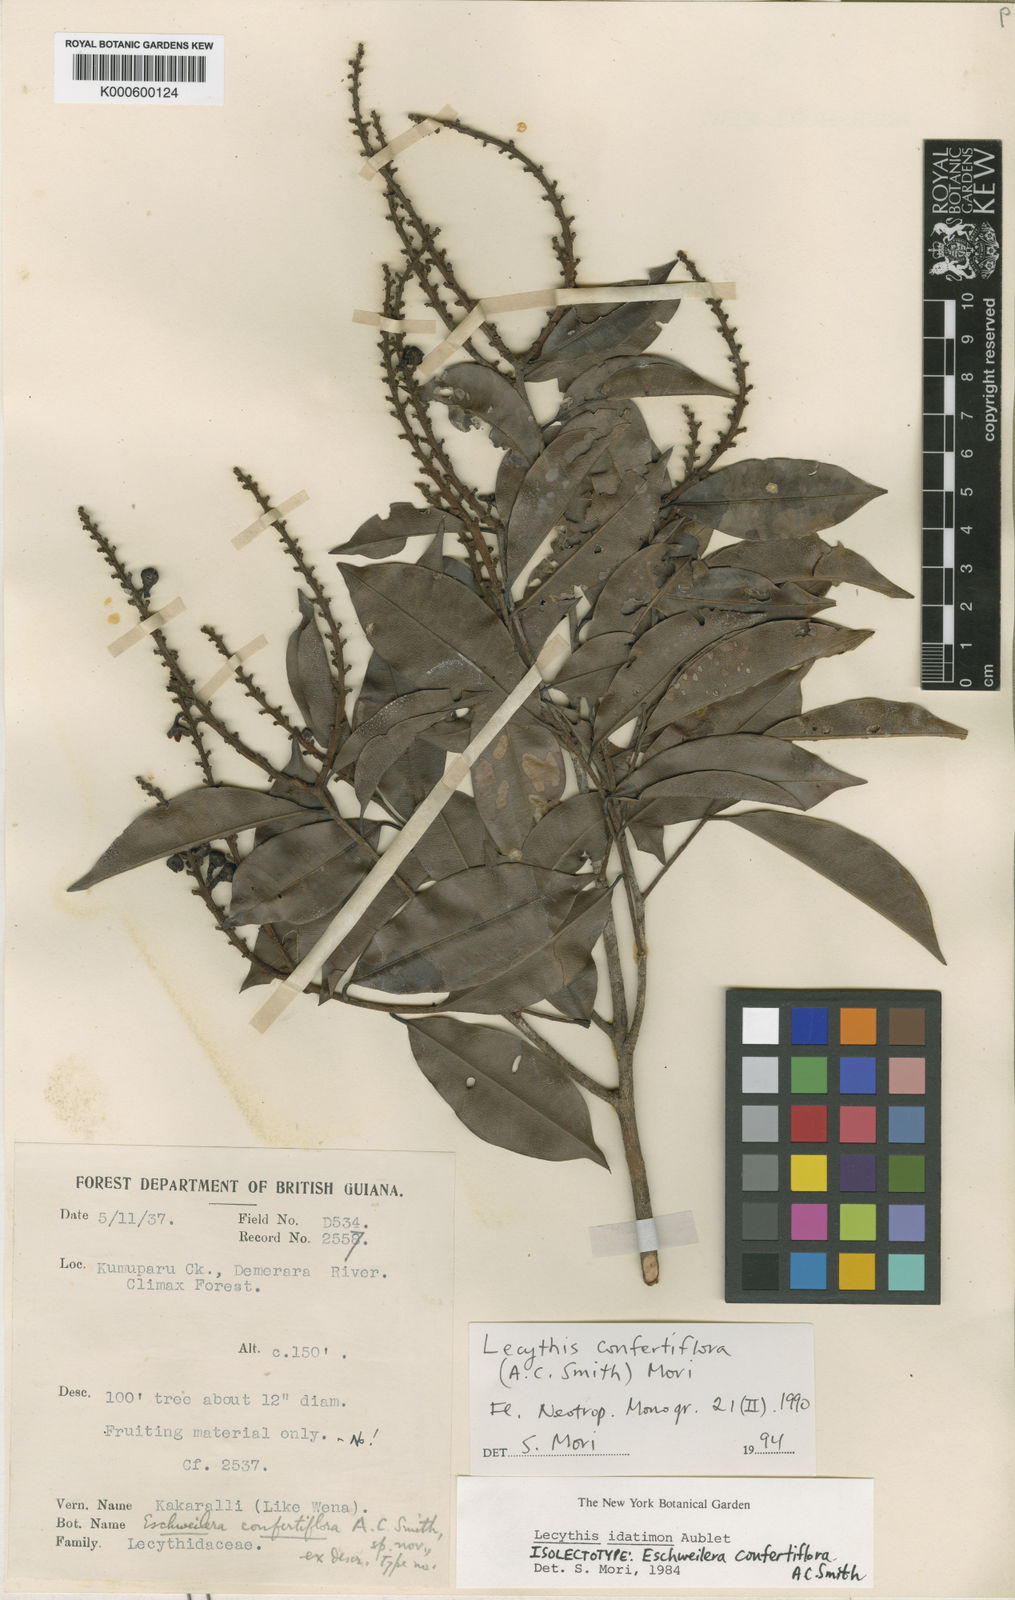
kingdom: Plantae
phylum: Tracheophyta
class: Magnoliopsida
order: Ericales
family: Lecythidaceae
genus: Lecythis
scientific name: Lecythis confertiflora
